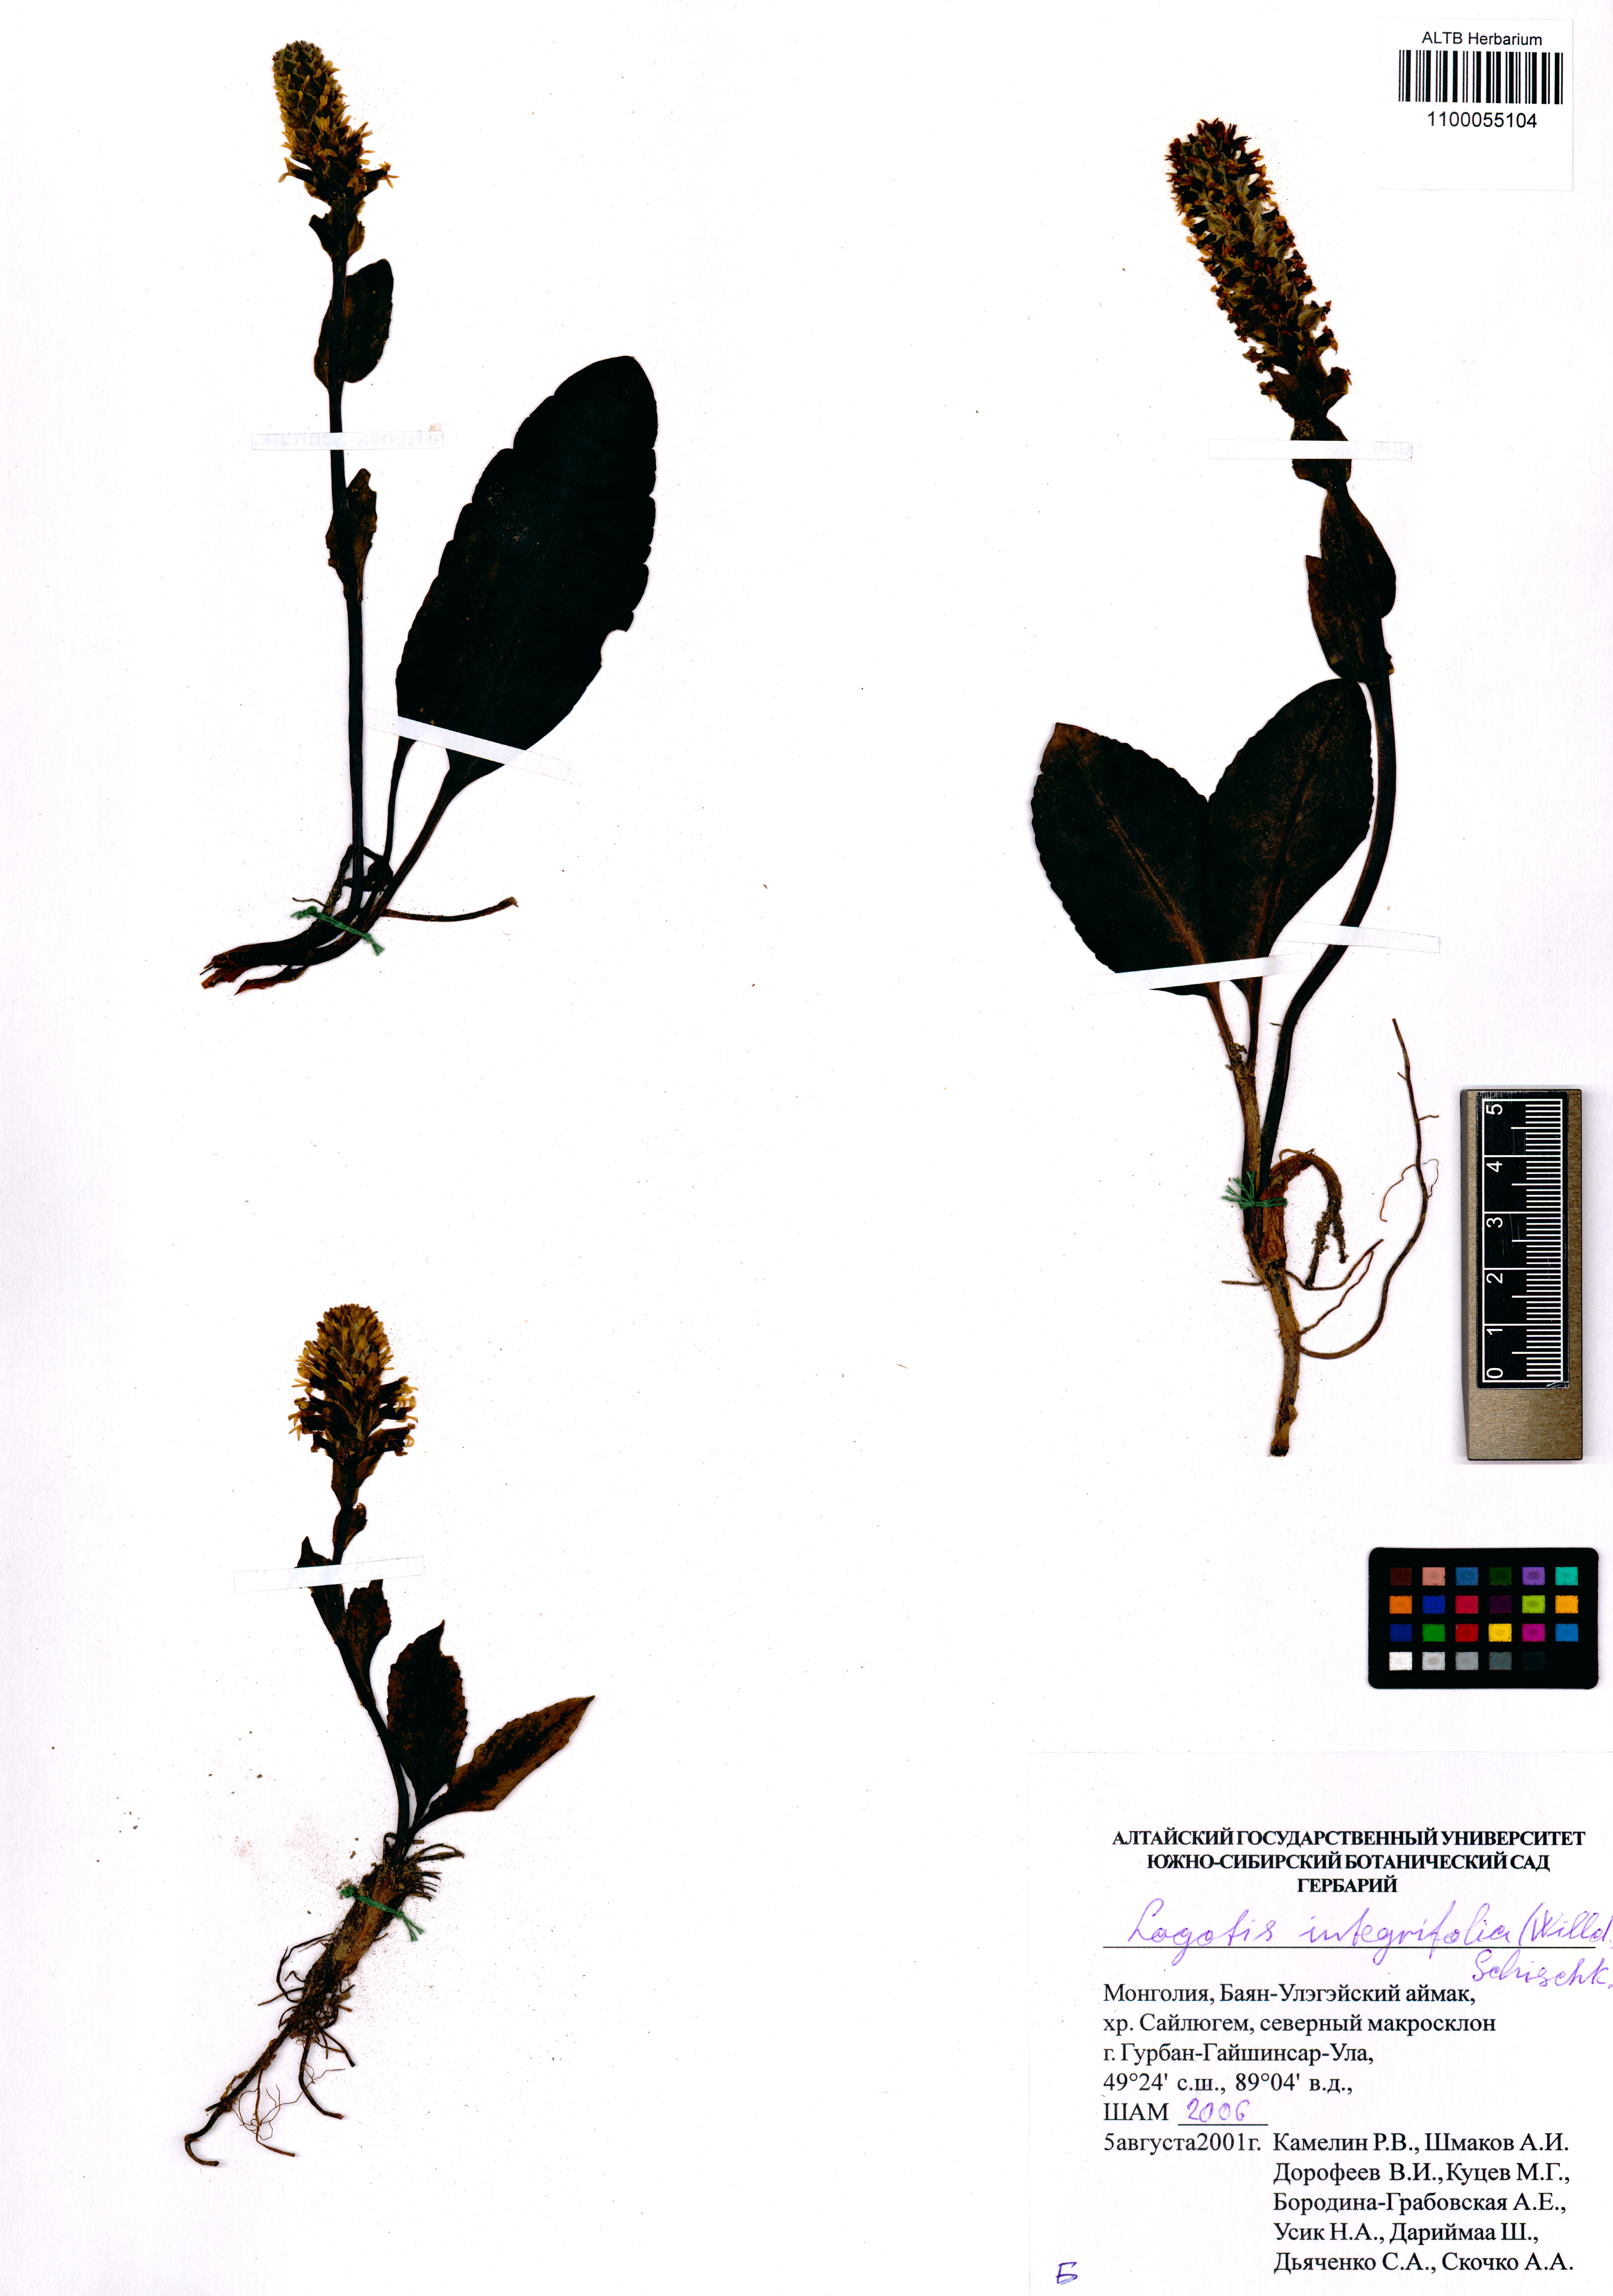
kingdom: Plantae
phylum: Tracheophyta
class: Magnoliopsida
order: Lamiales
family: Plantaginaceae
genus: Lagotis
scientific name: Lagotis integrifolia
